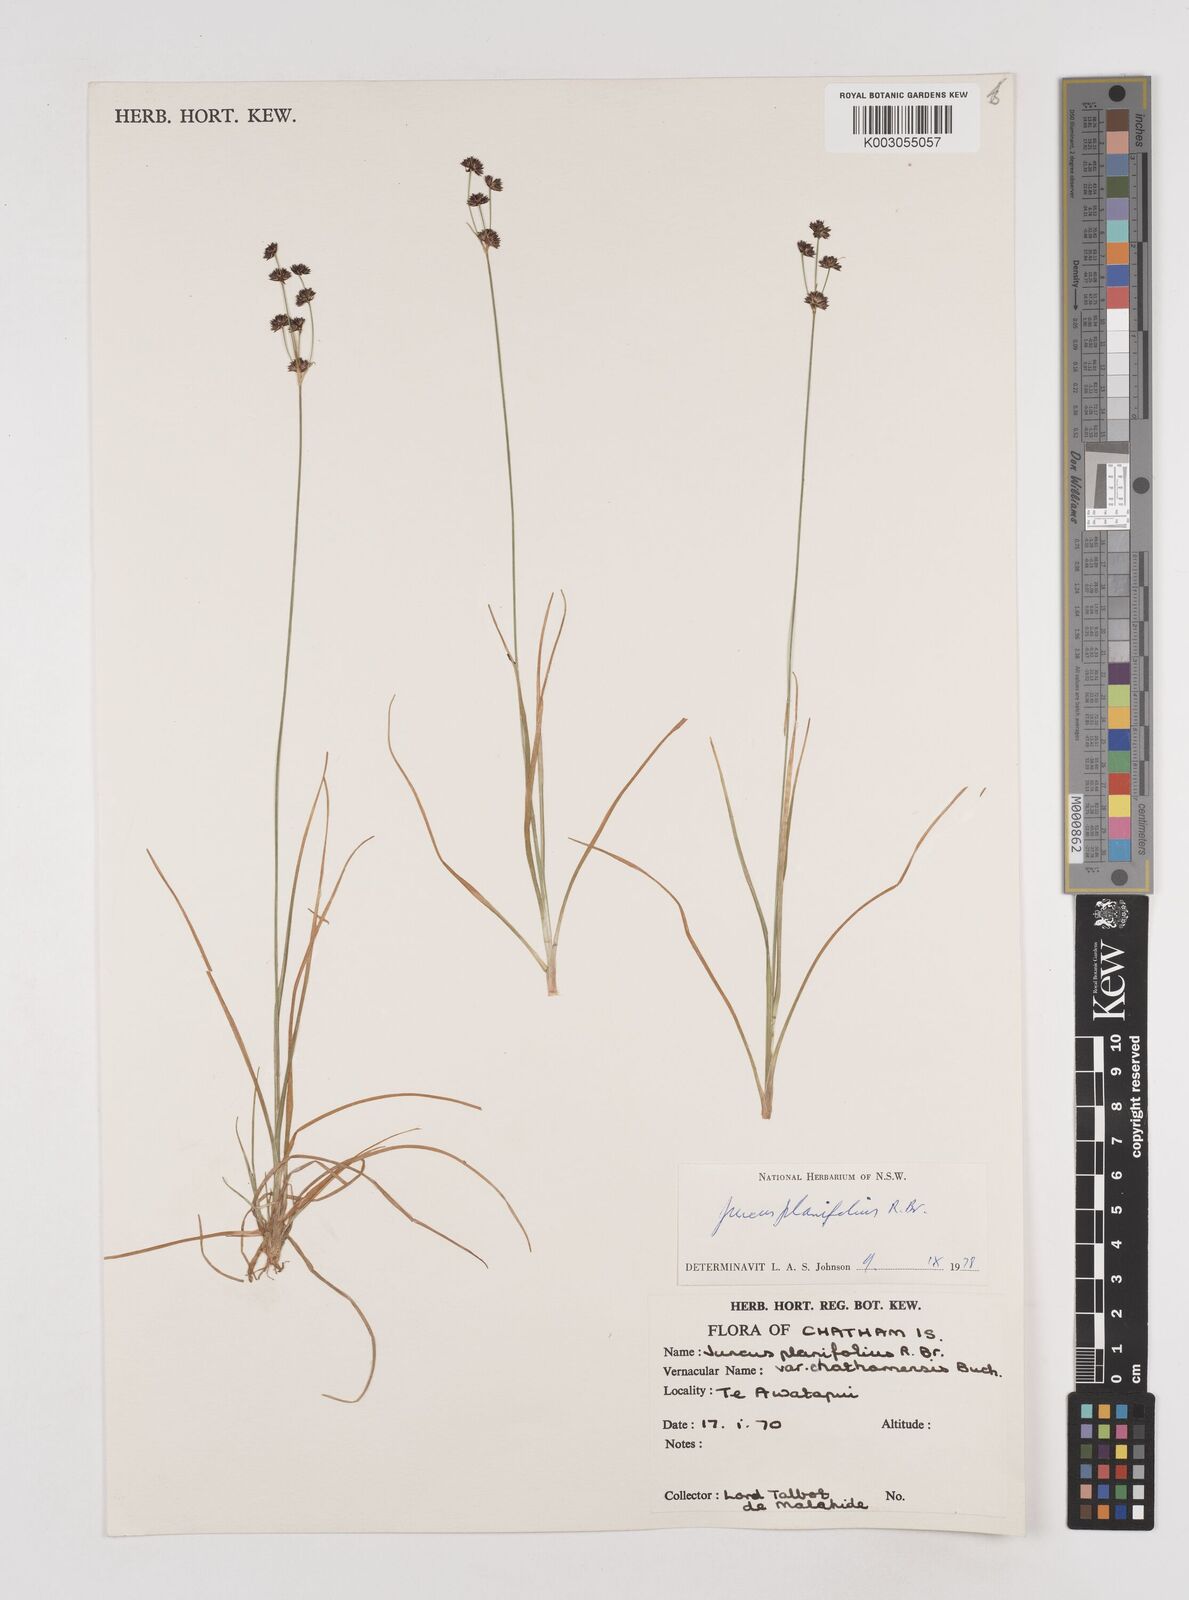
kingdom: Plantae
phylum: Tracheophyta
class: Liliopsida
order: Poales
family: Juncaceae
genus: Juncus
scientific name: Juncus planifolius
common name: Broadleaf rush
